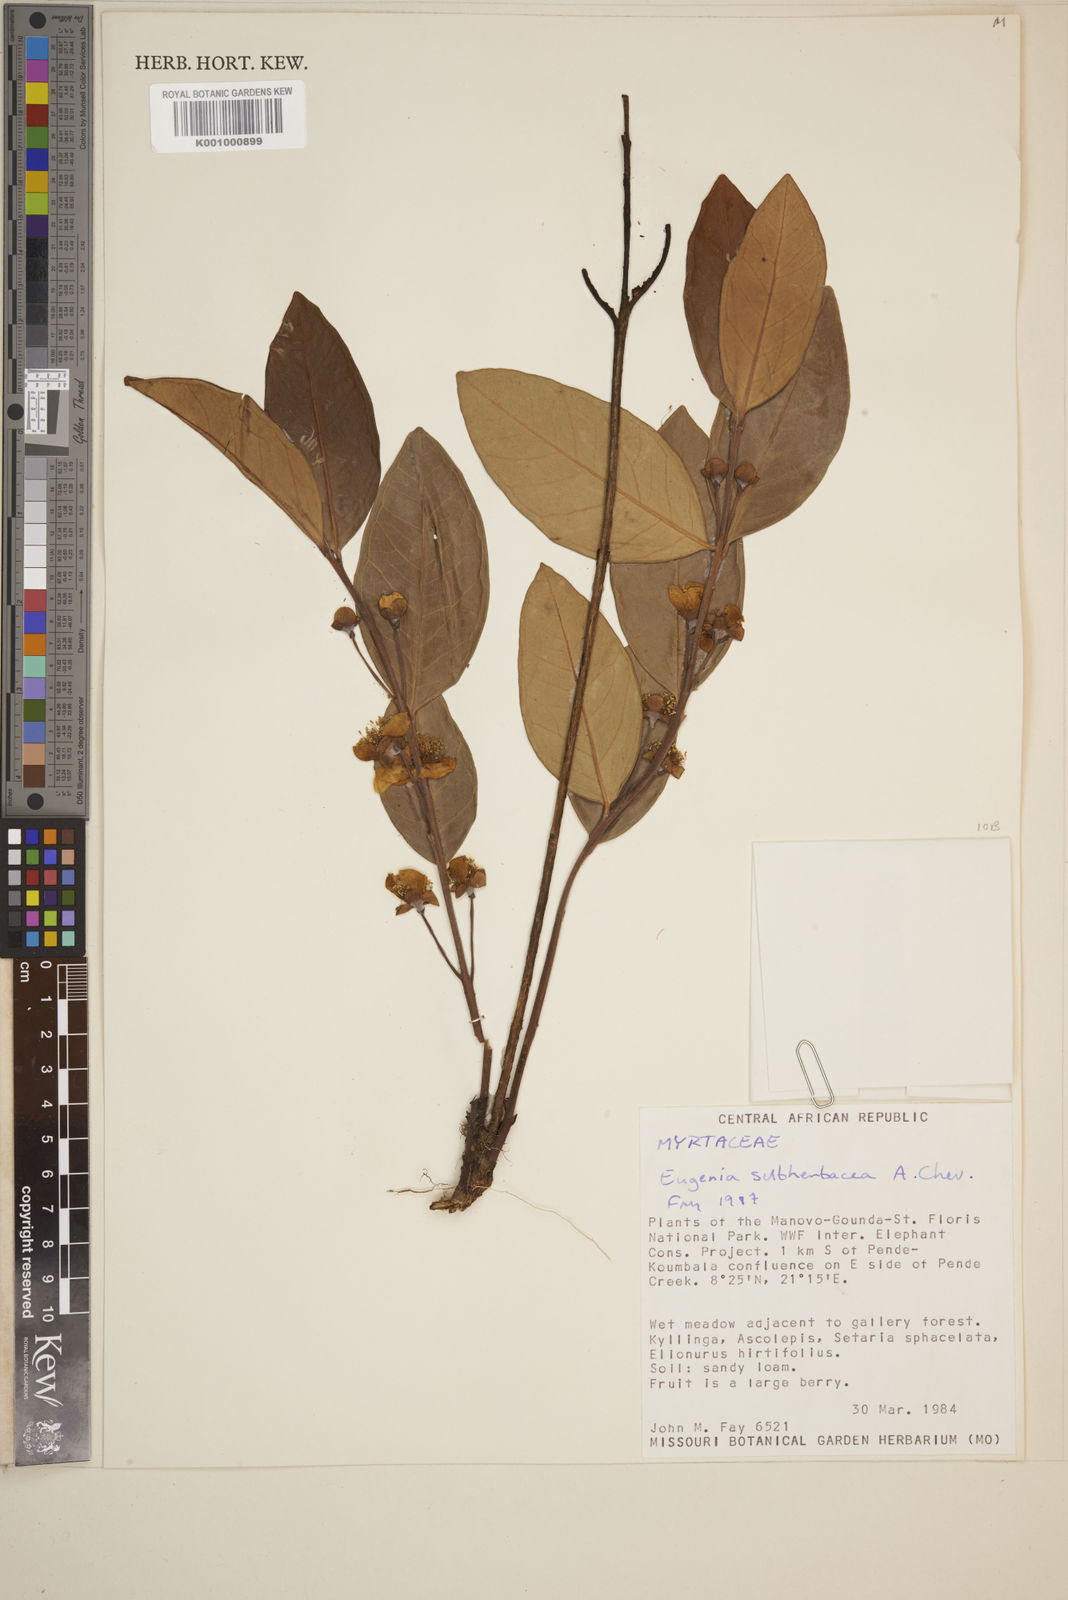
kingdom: Plantae
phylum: Tracheophyta
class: Magnoliopsida
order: Myrtales
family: Myrtaceae
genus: Eugenia
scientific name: Eugenia subherbacea
